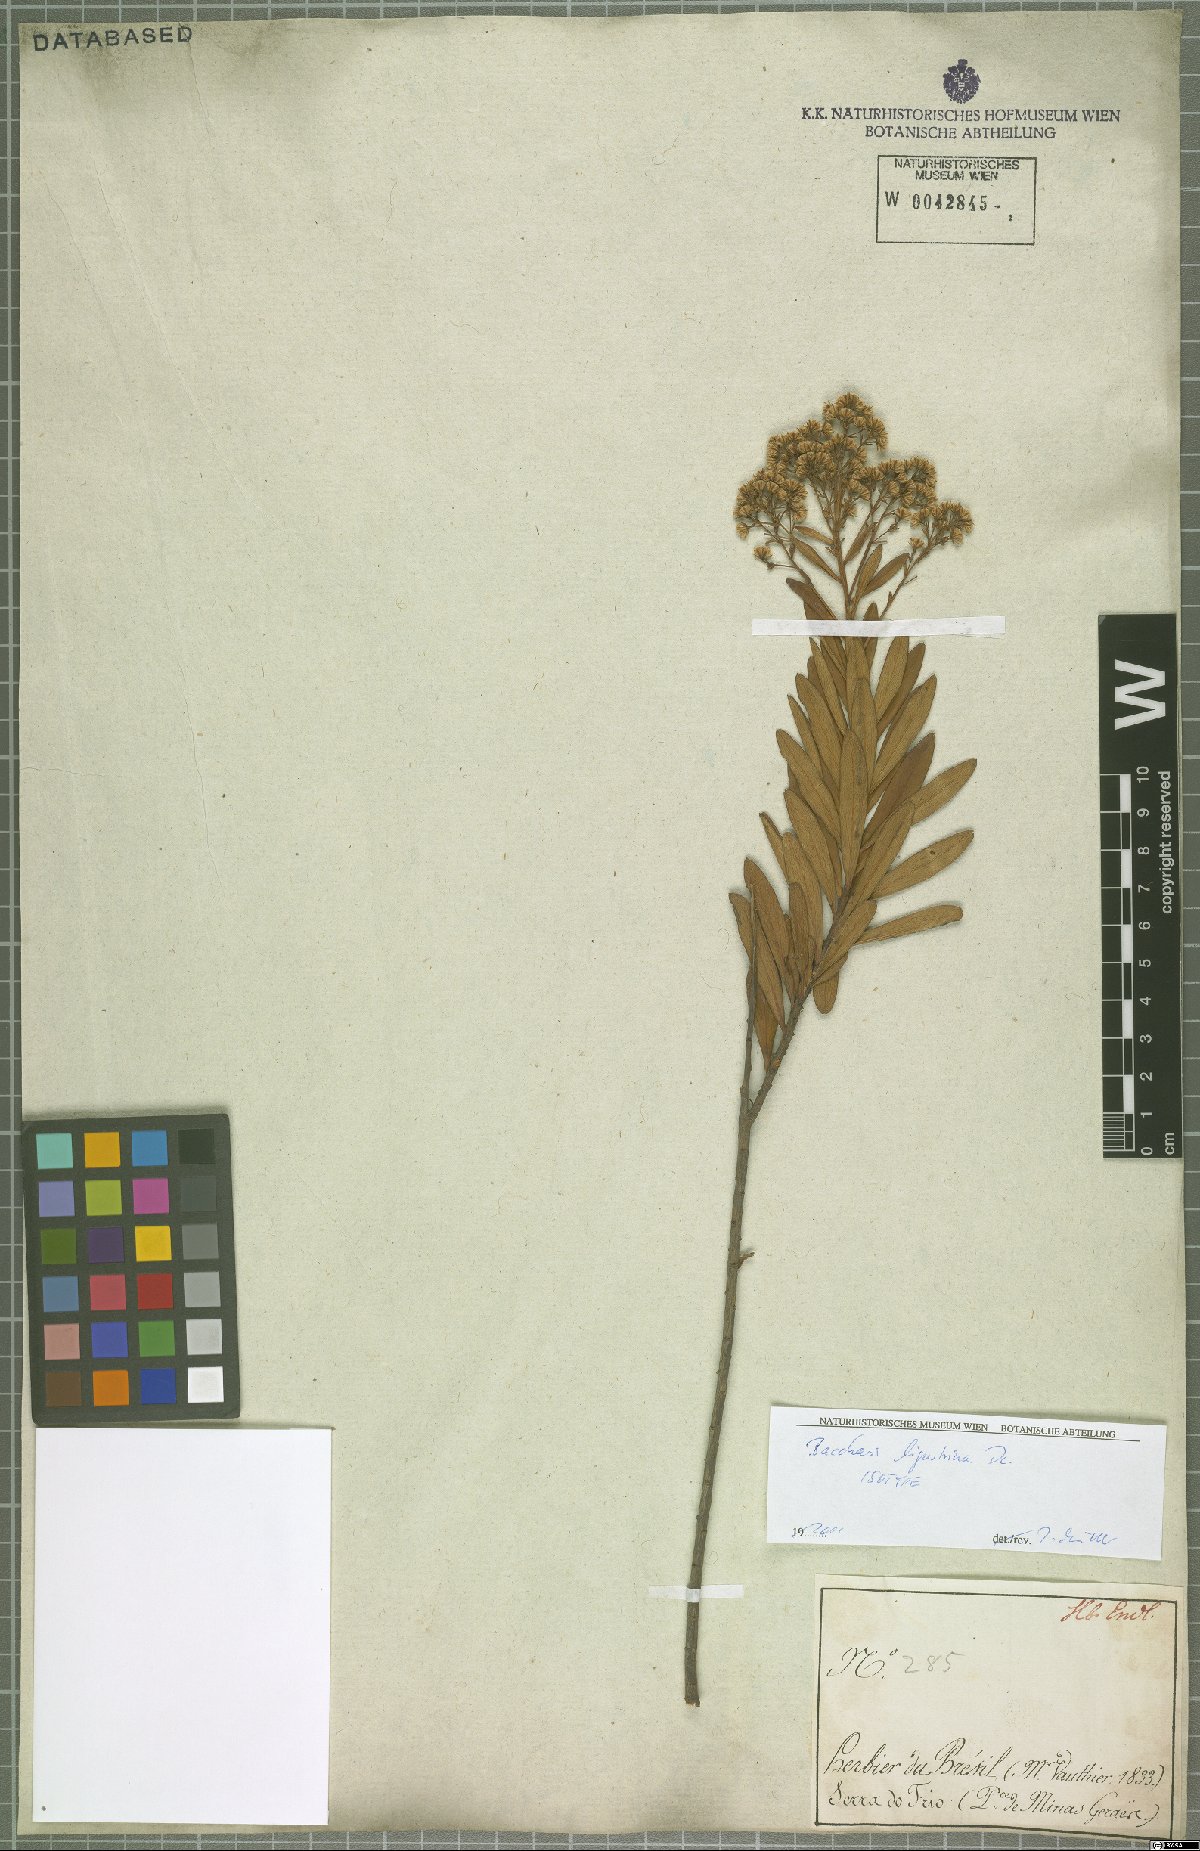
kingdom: Plantae
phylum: Tracheophyta
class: Magnoliopsida
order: Asterales
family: Asteraceae
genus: Baccharis
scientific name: Baccharis ligustrina
